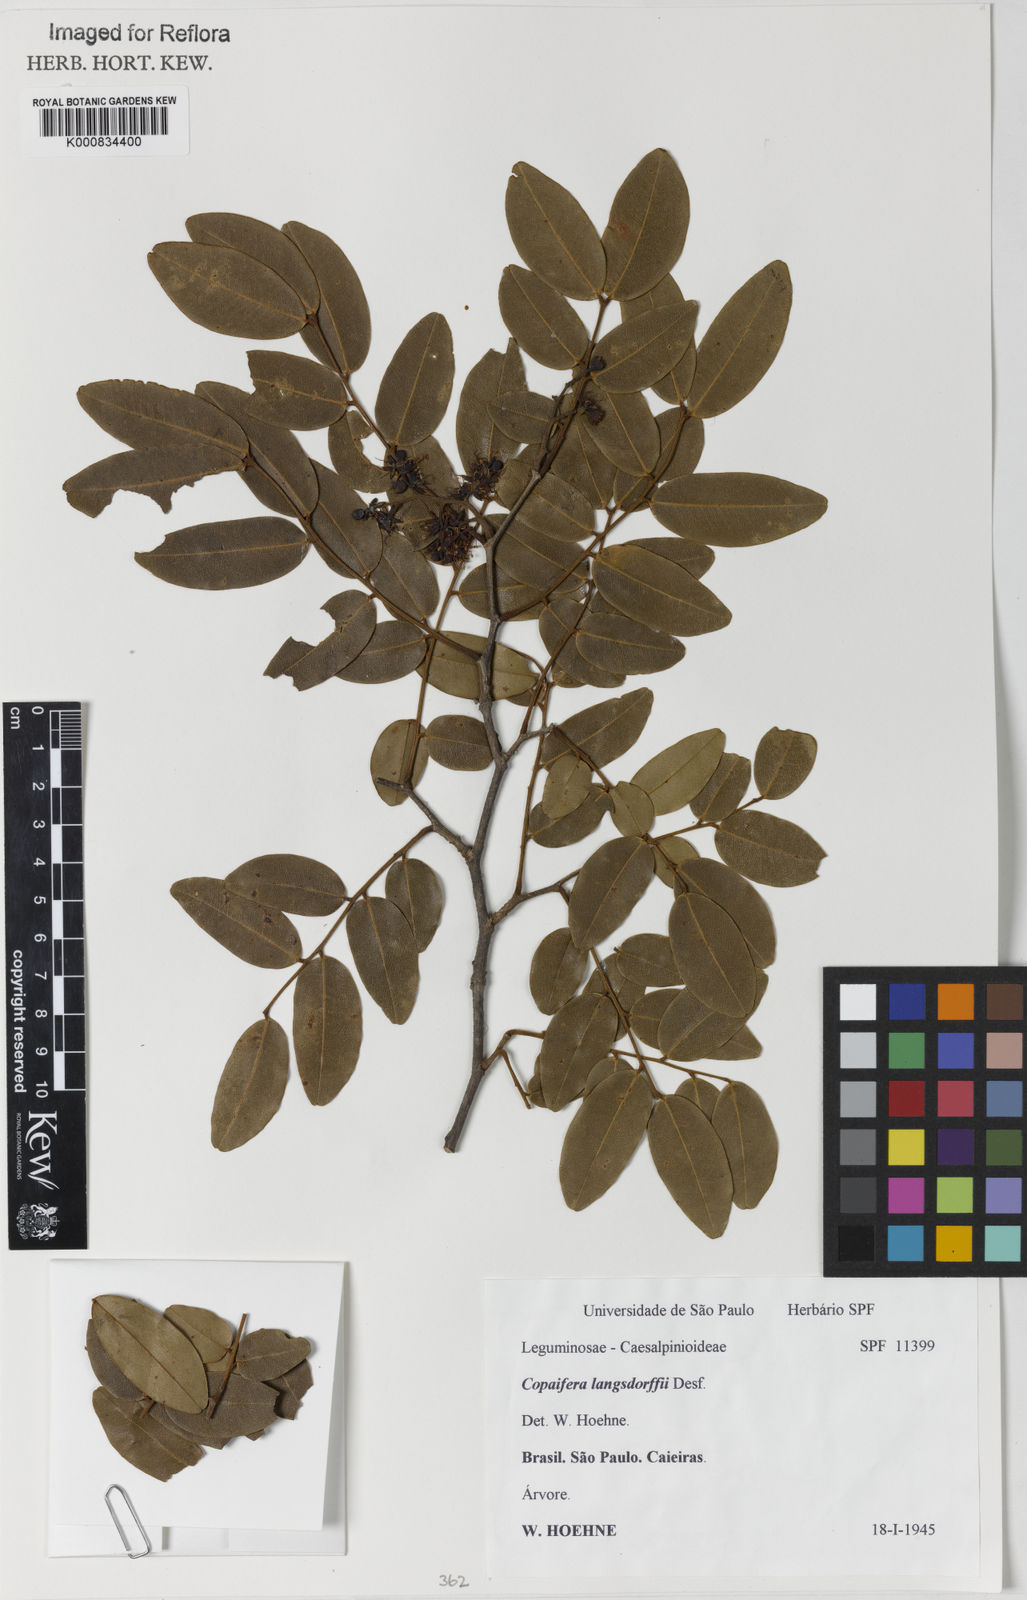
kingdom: Plantae
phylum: Tracheophyta
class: Magnoliopsida
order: Fabales
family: Fabaceae
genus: Copaifera
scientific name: Copaifera langsdorffii
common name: Brazilian diesel tree
